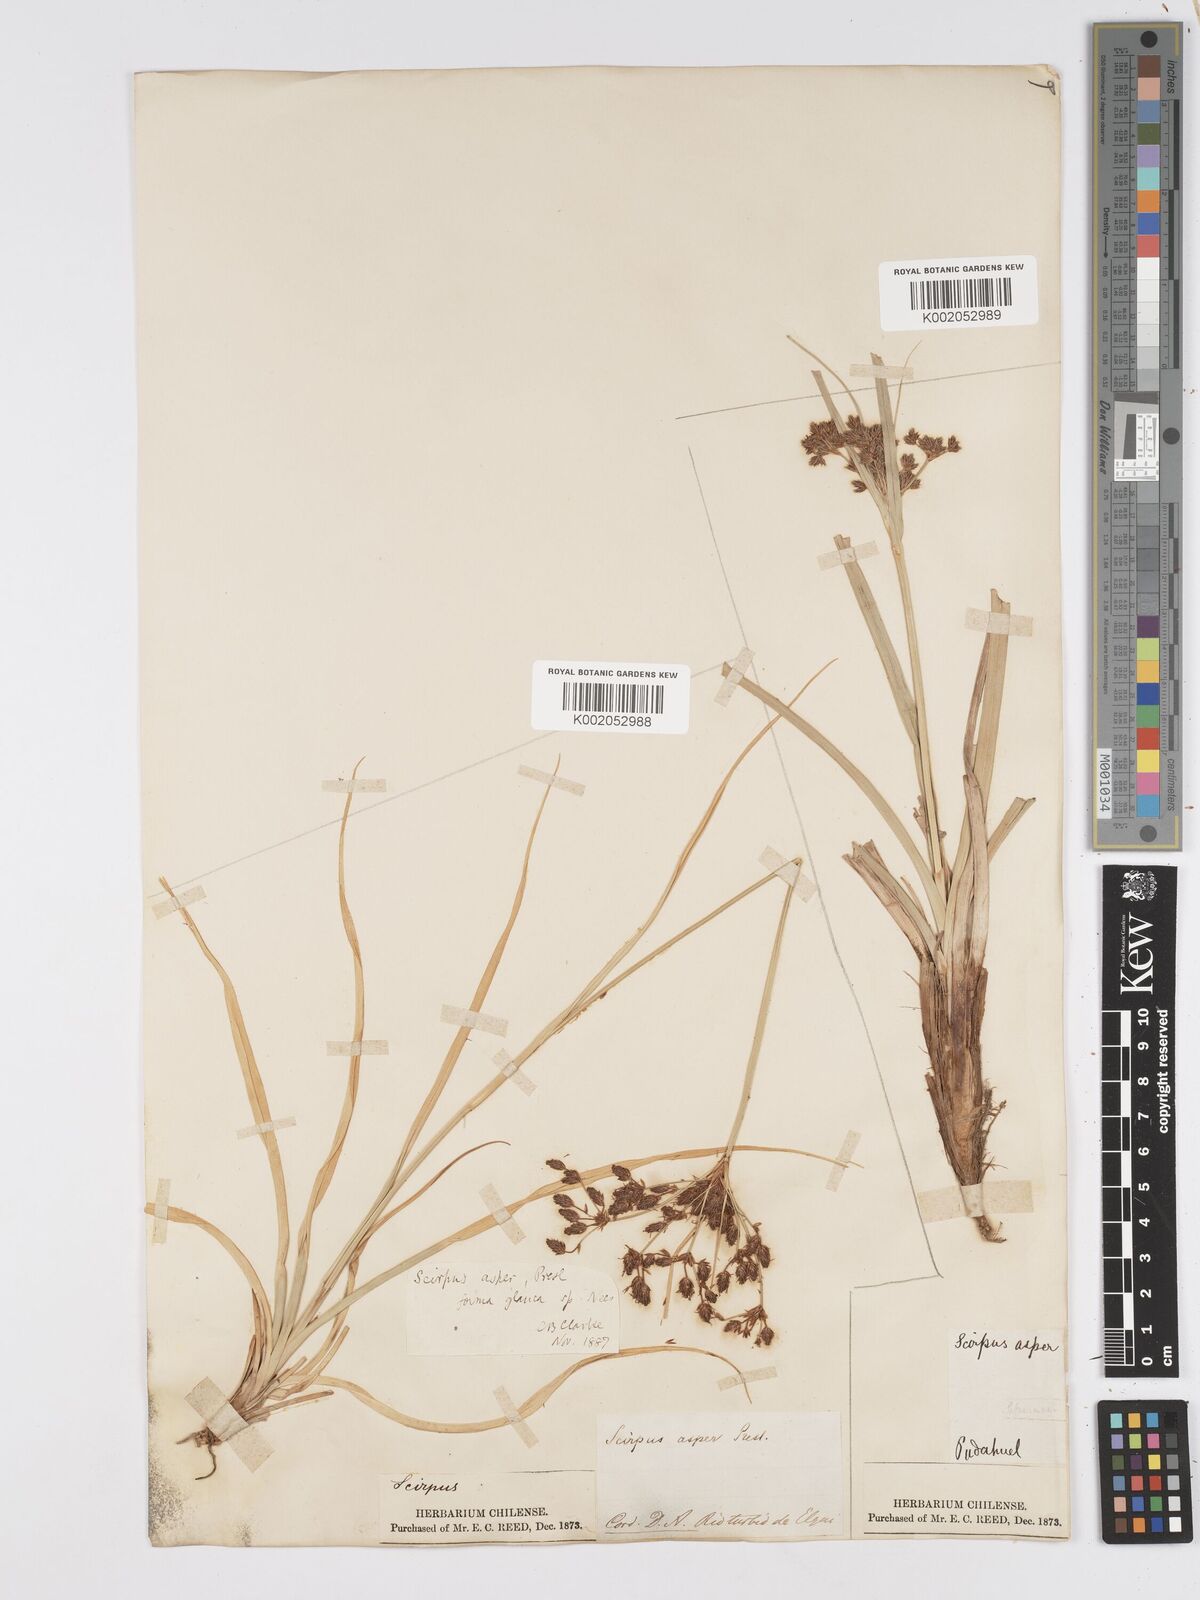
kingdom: Plantae
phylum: Tracheophyta
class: Liliopsida
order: Poales
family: Cyperaceae
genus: Rhodoscirpus
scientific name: Rhodoscirpus asper
